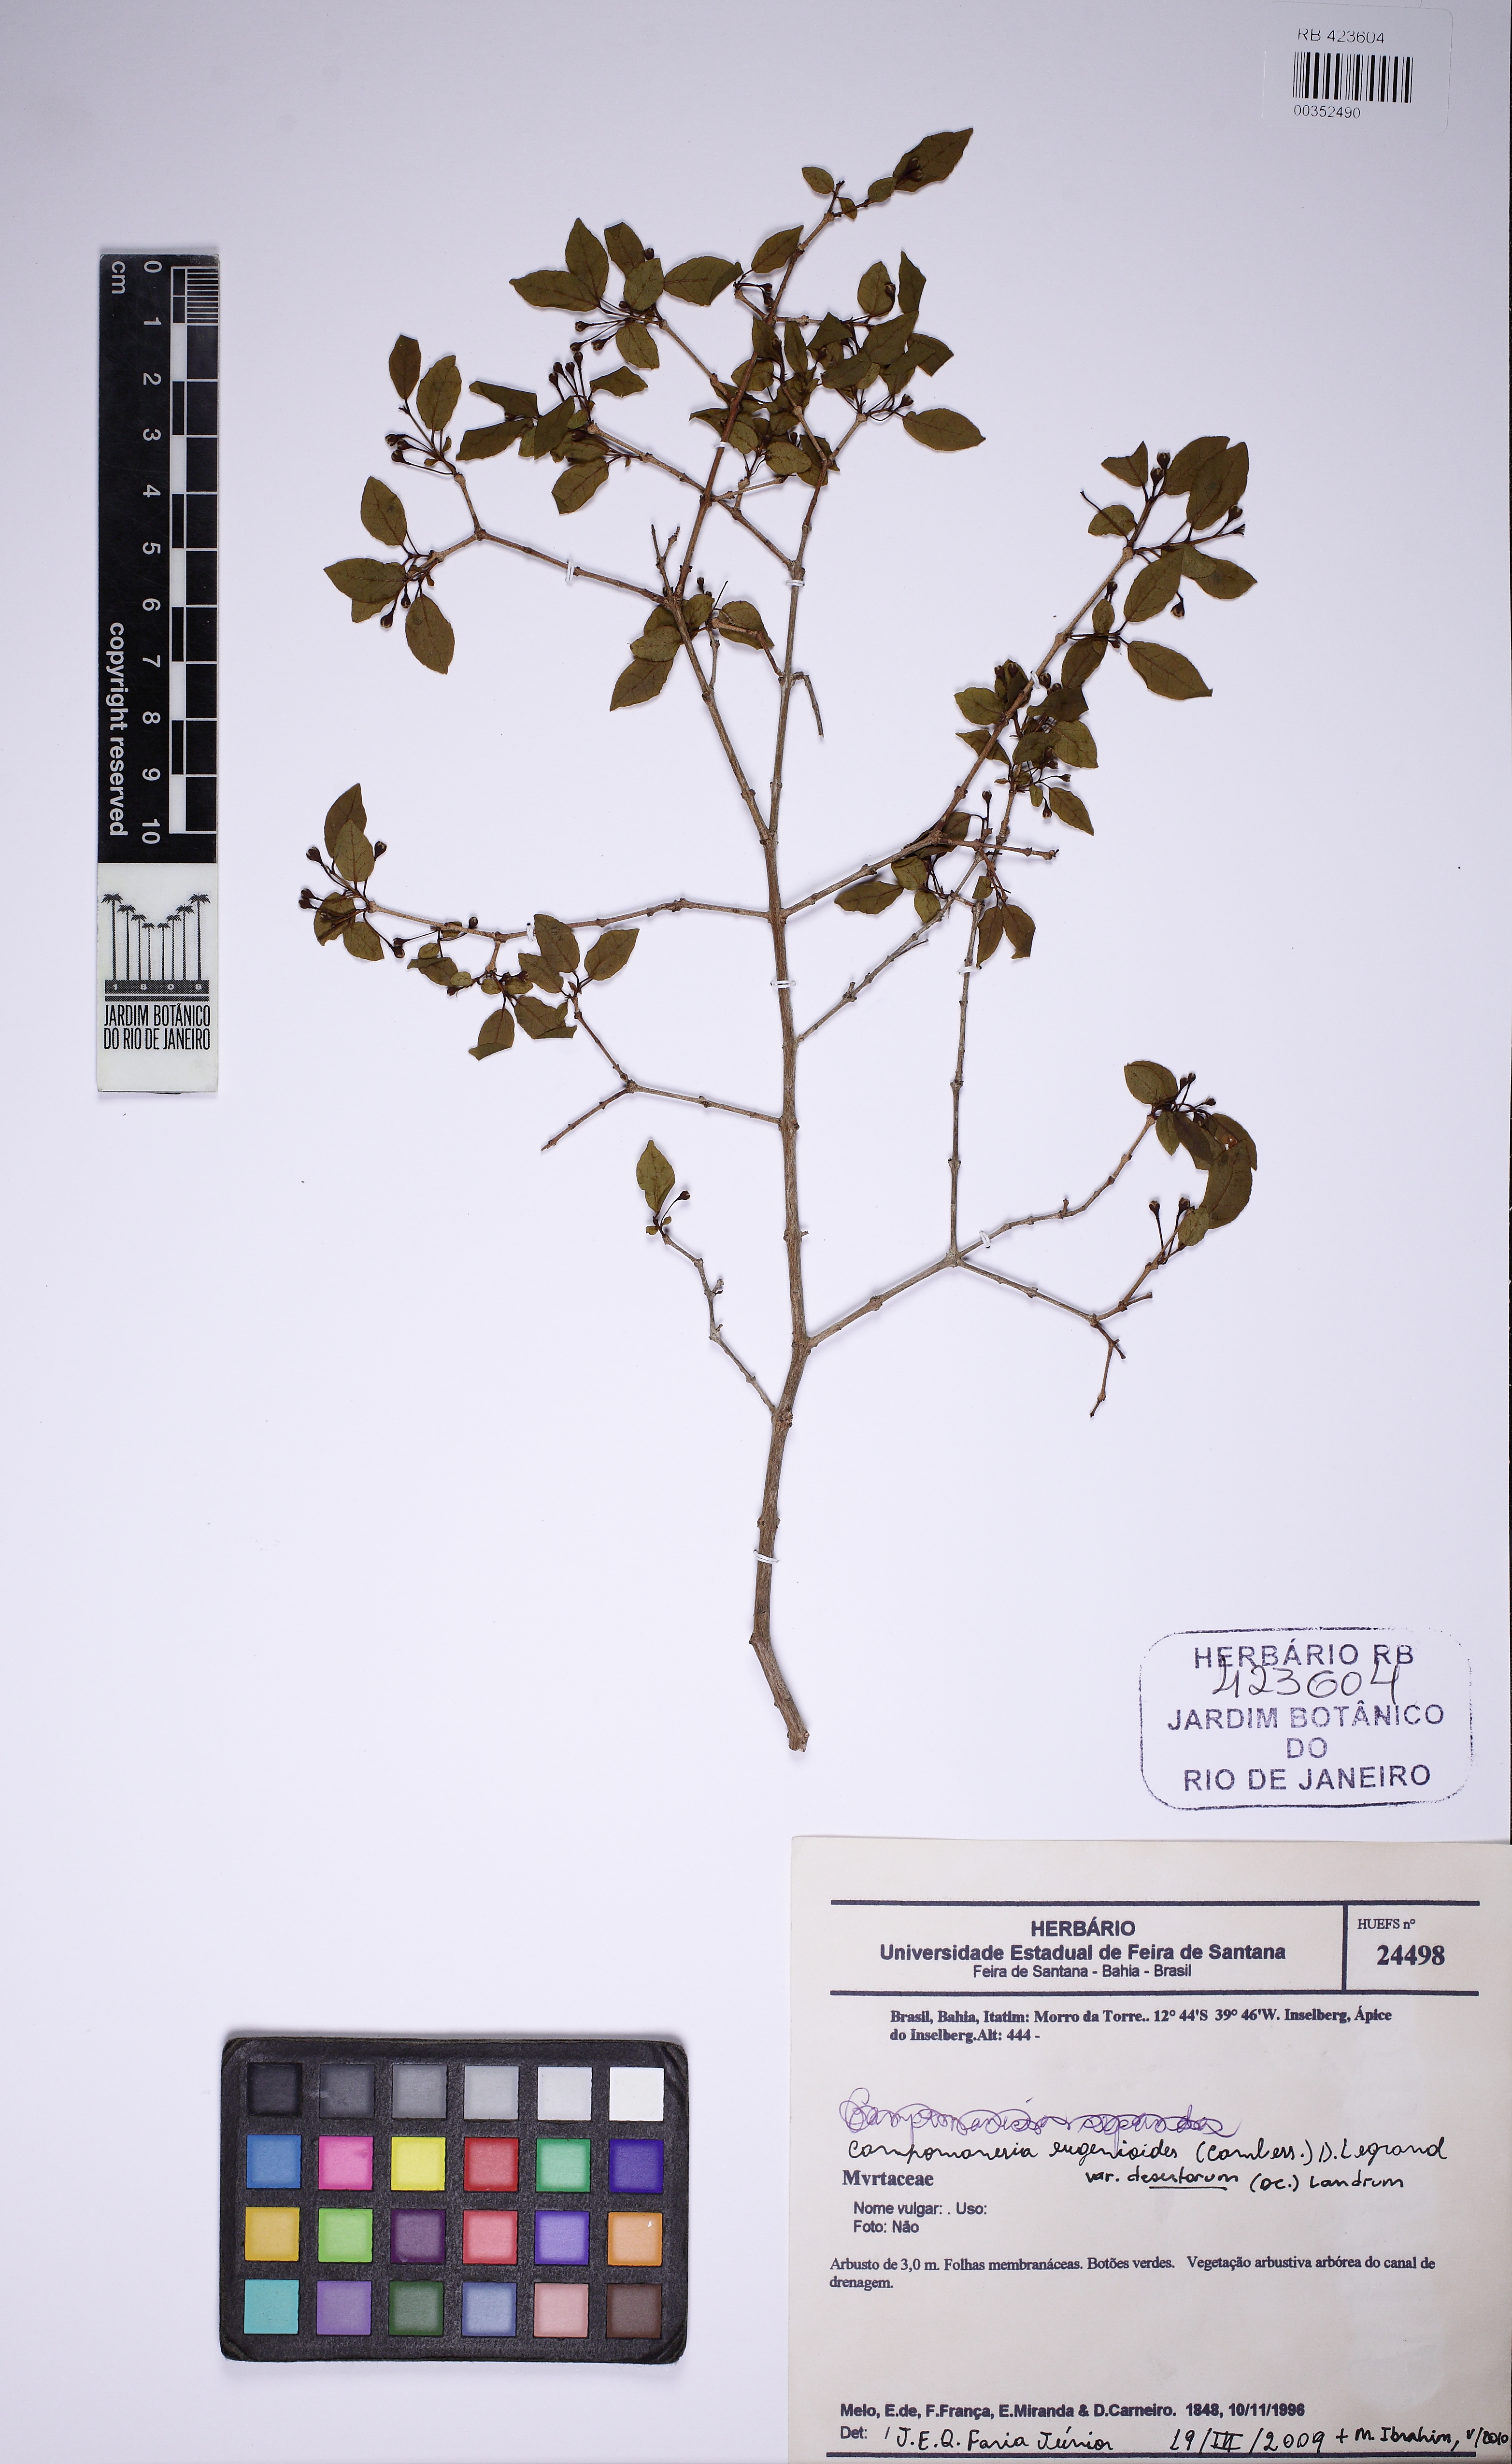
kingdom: Plantae
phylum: Tracheophyta
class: Magnoliopsida
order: Myrtales
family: Myrtaceae
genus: Campomanesia
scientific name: Campomanesia eugenioides
